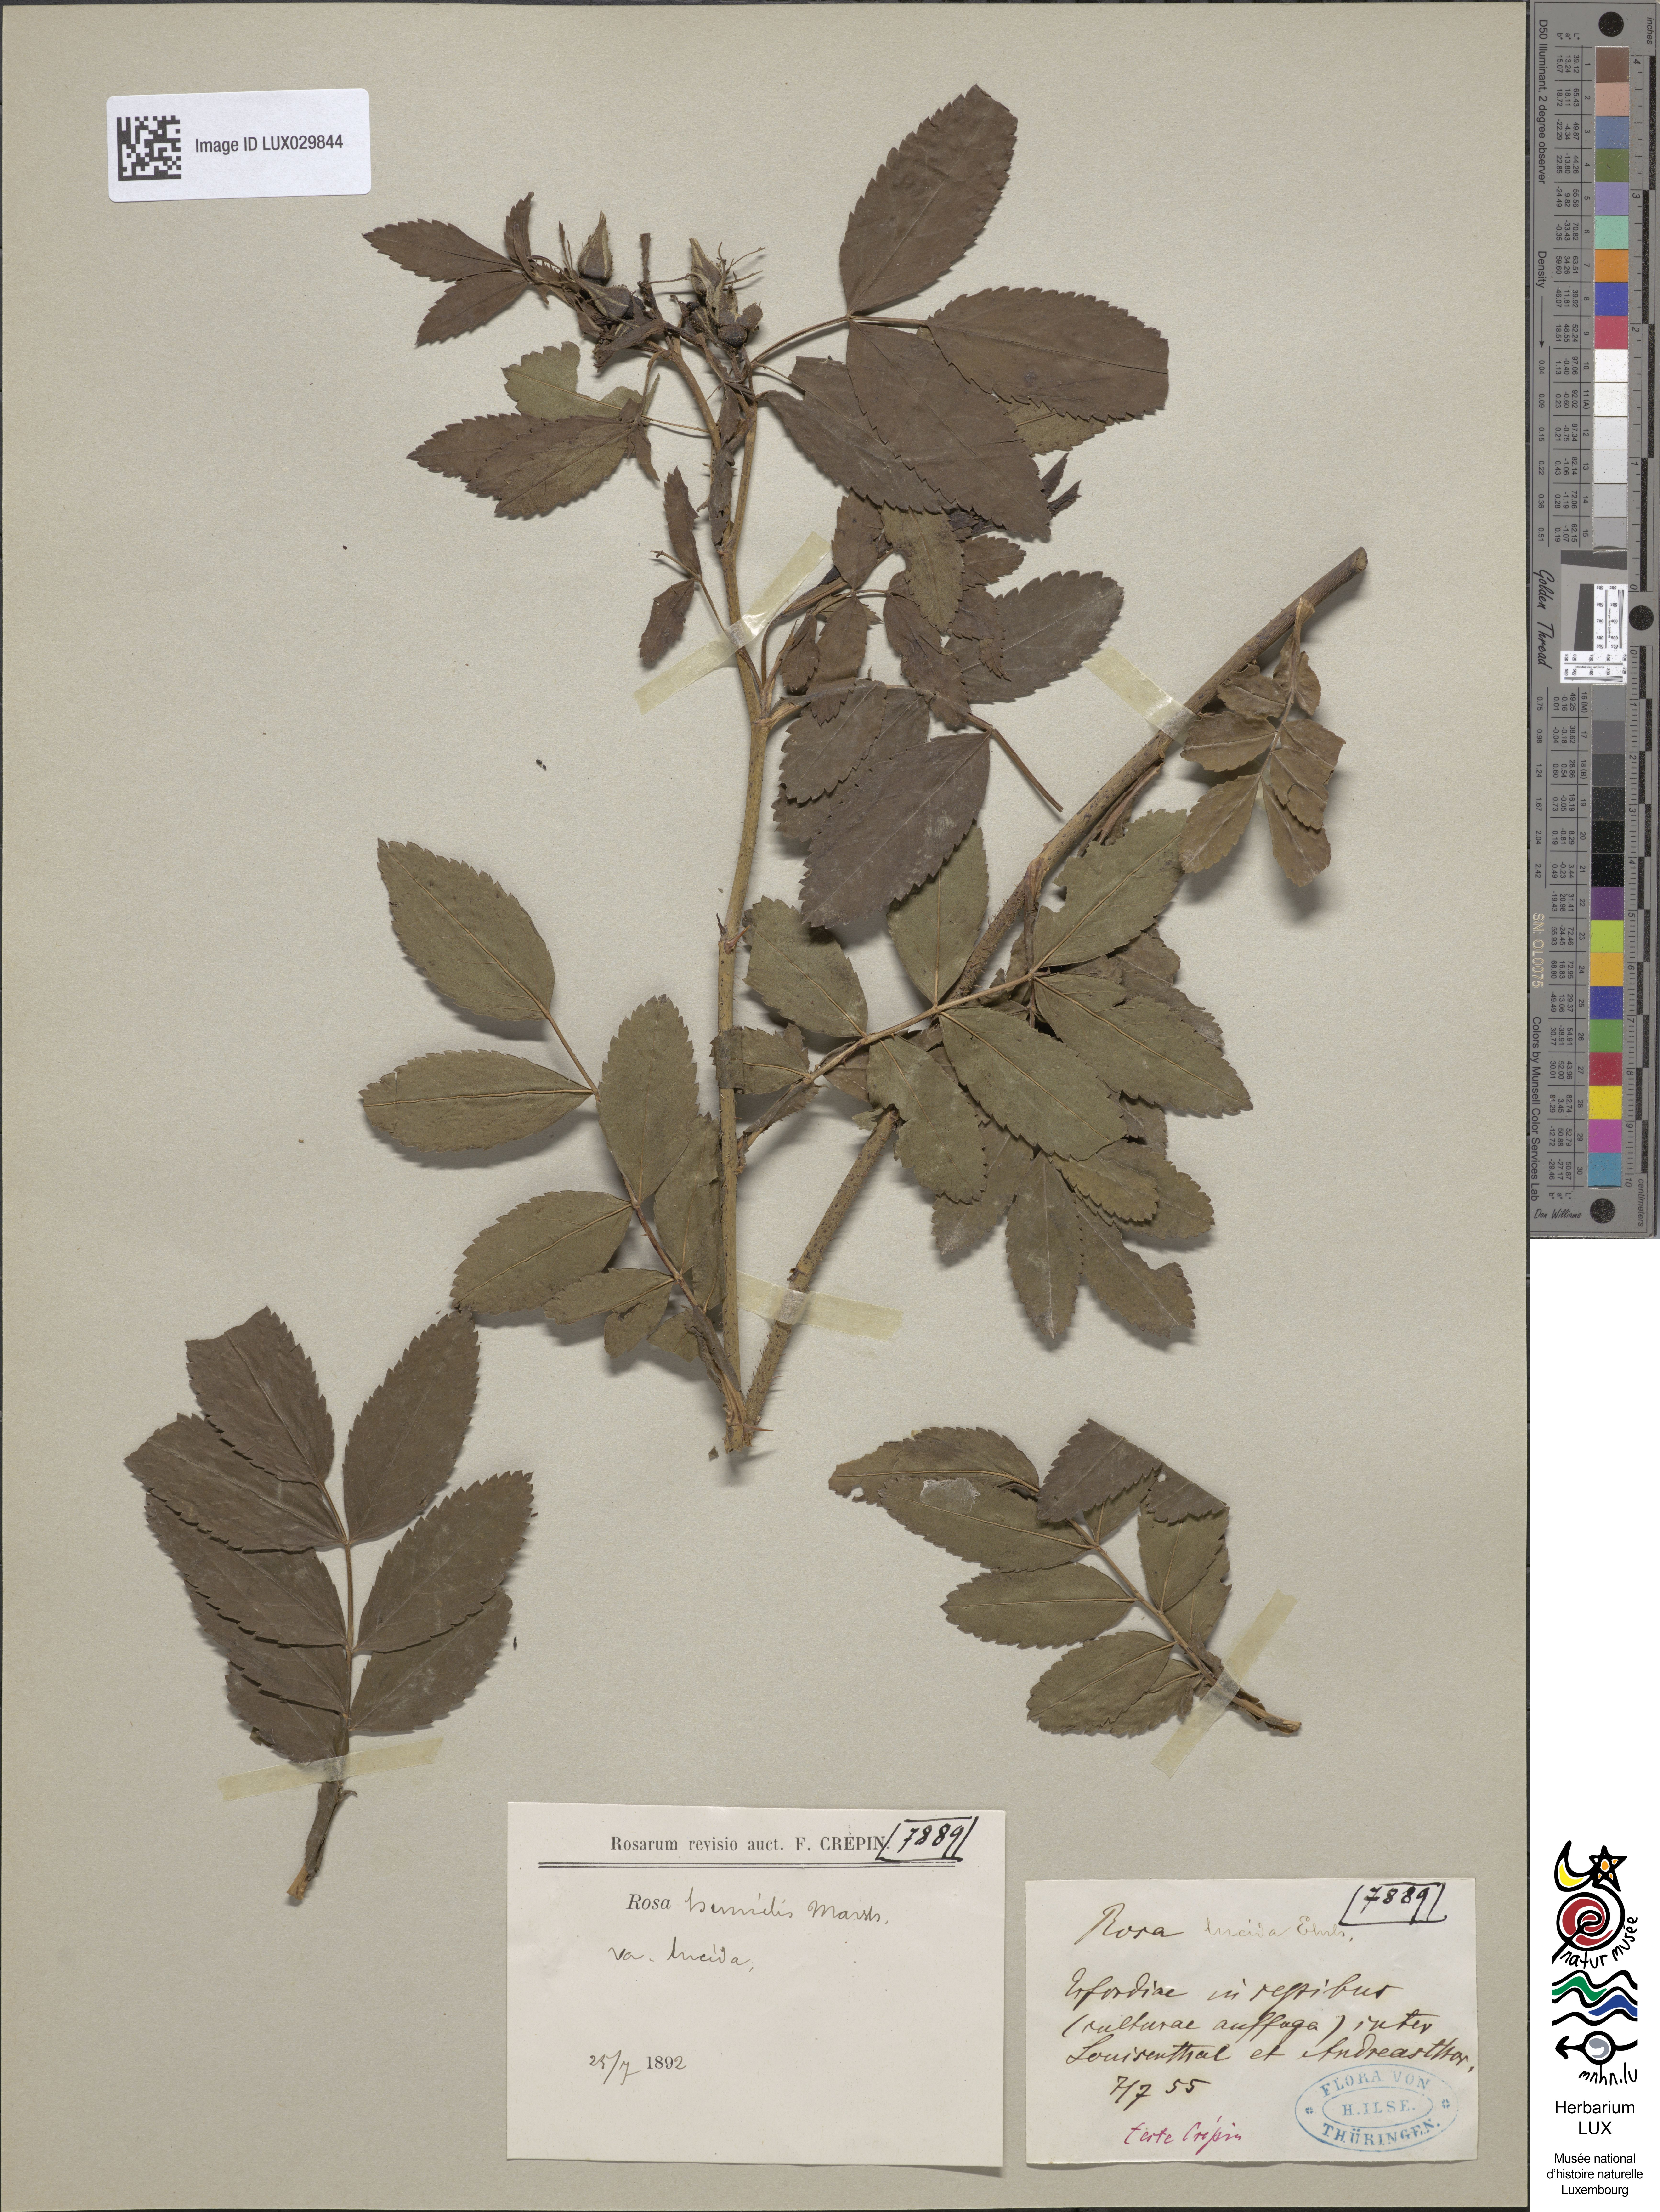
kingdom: Plantae
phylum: Tracheophyta
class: Magnoliopsida
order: Rosales
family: Rosaceae
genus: Rosa
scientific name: Rosa virginiana
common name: Virginian rose
